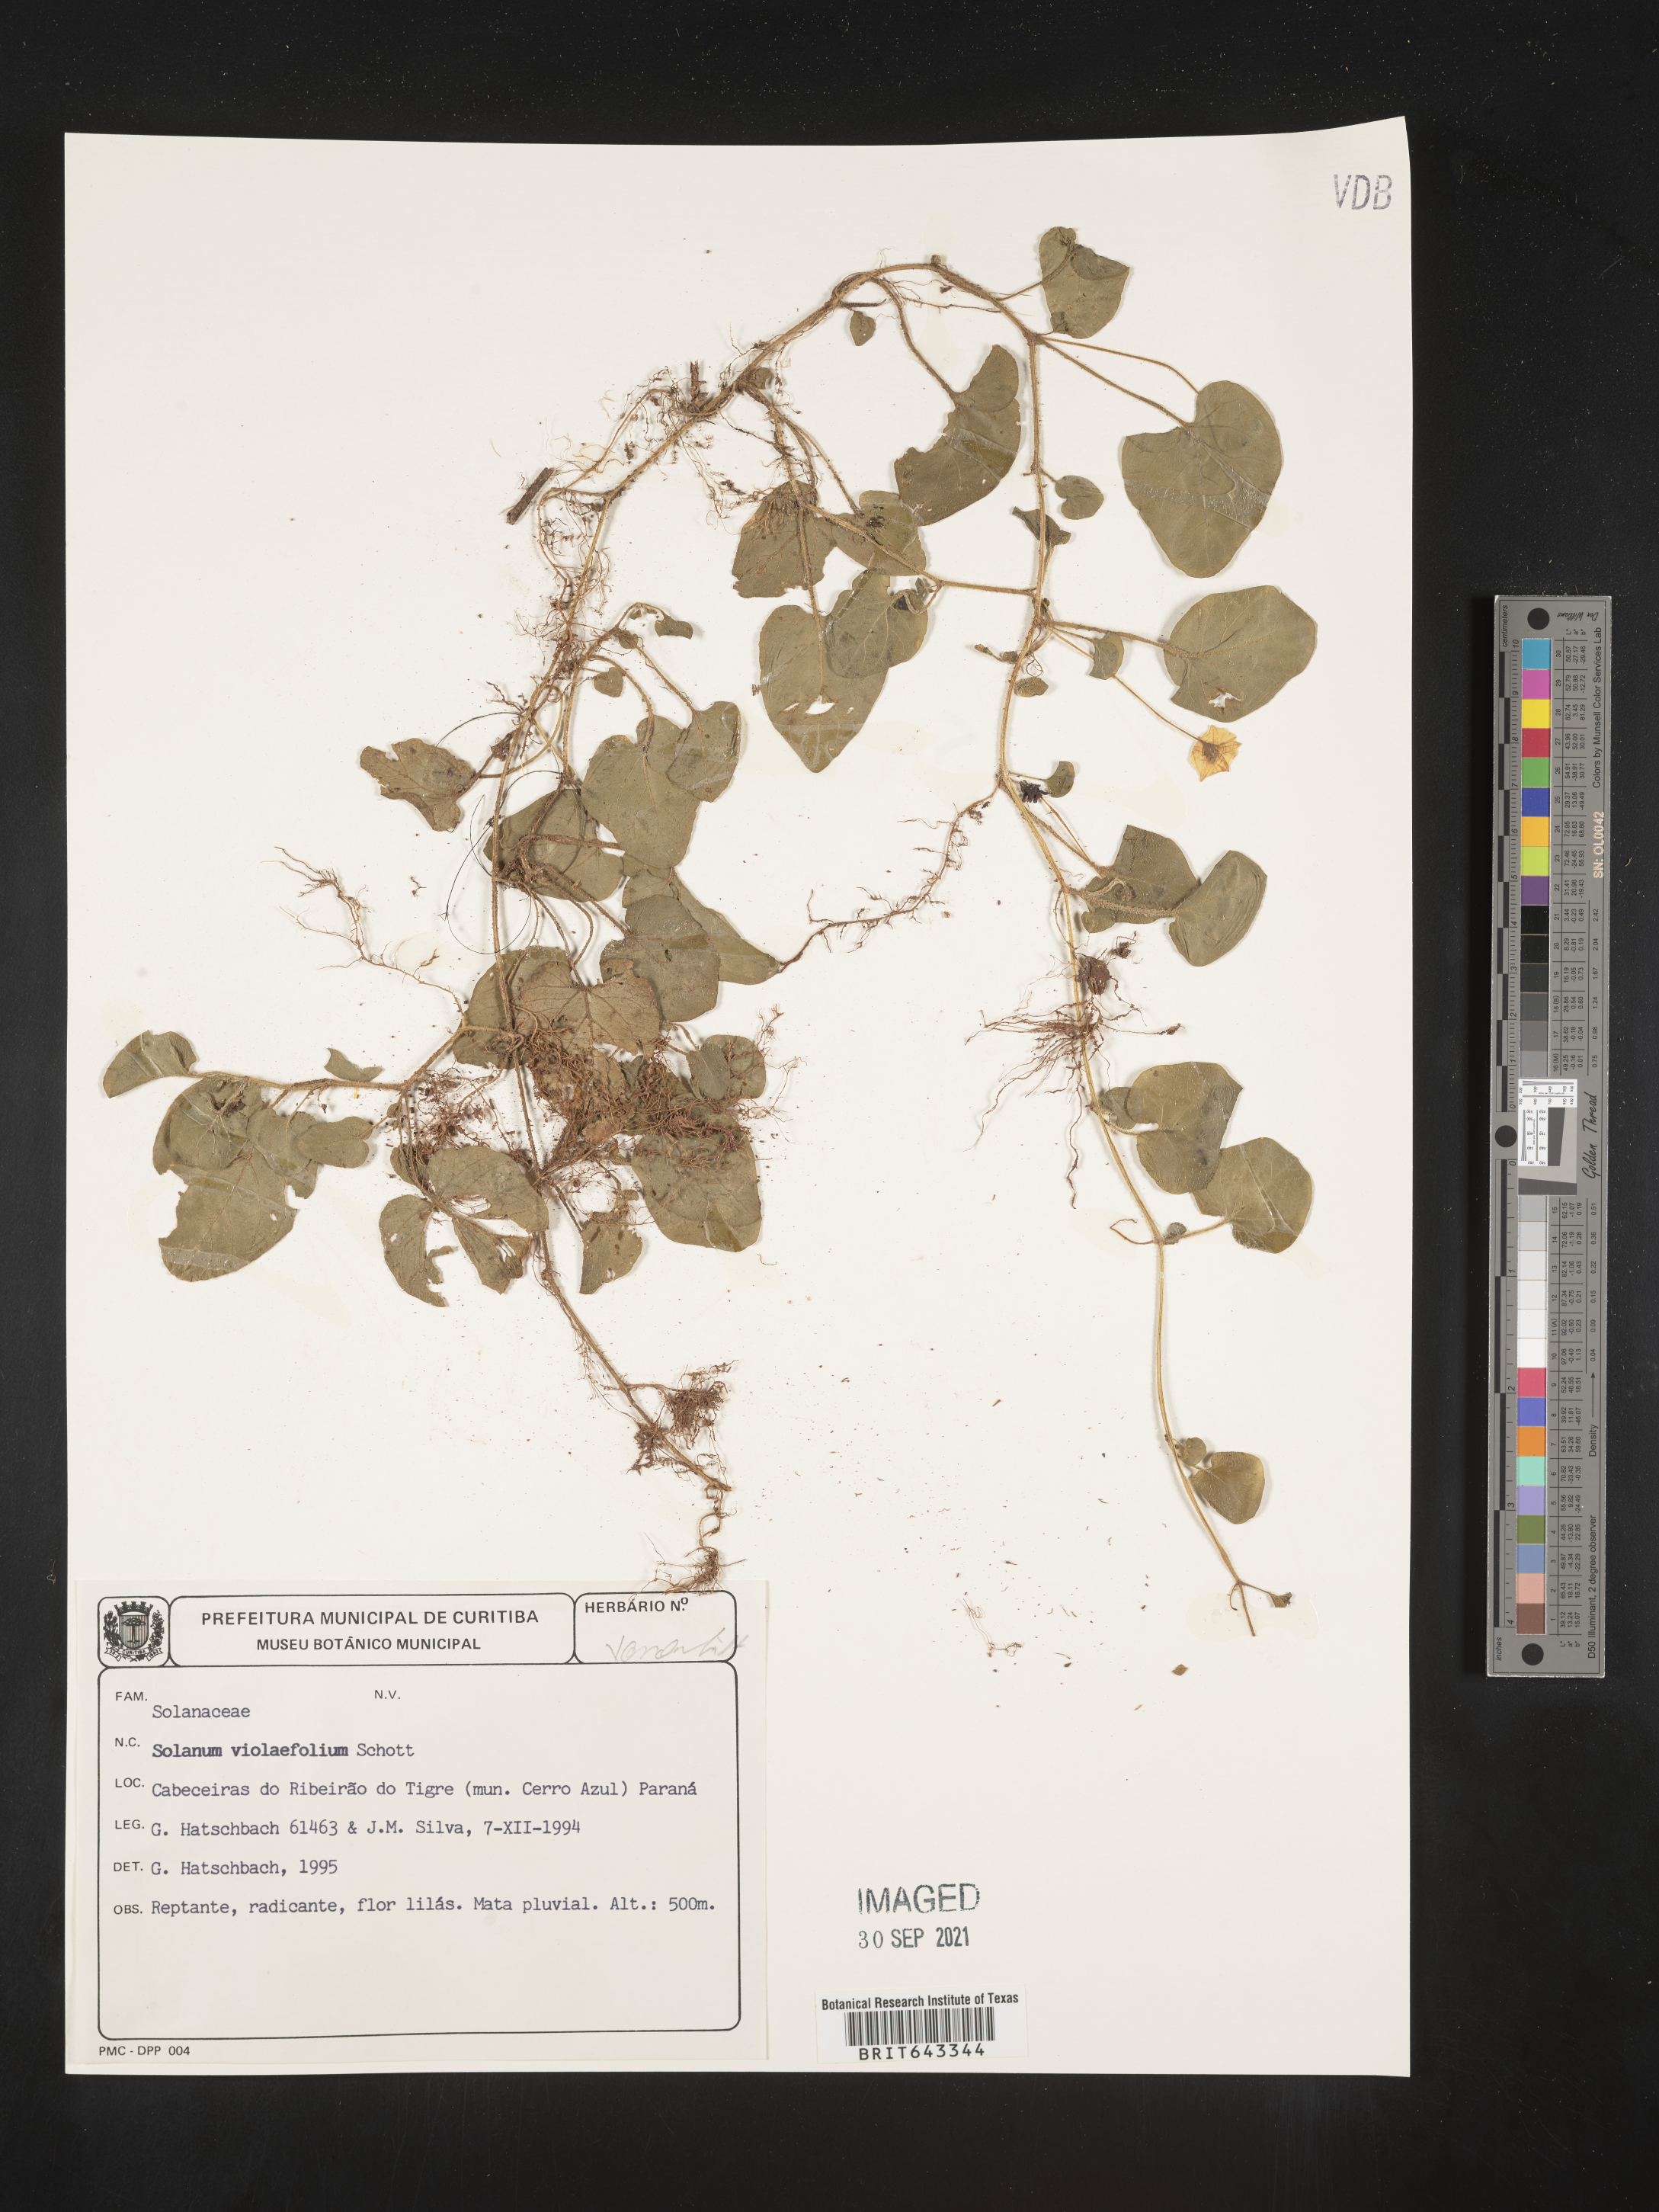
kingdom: Plantae
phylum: Tracheophyta
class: Magnoliopsida
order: Solanales
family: Solanaceae
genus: Solanum
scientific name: Solanum
